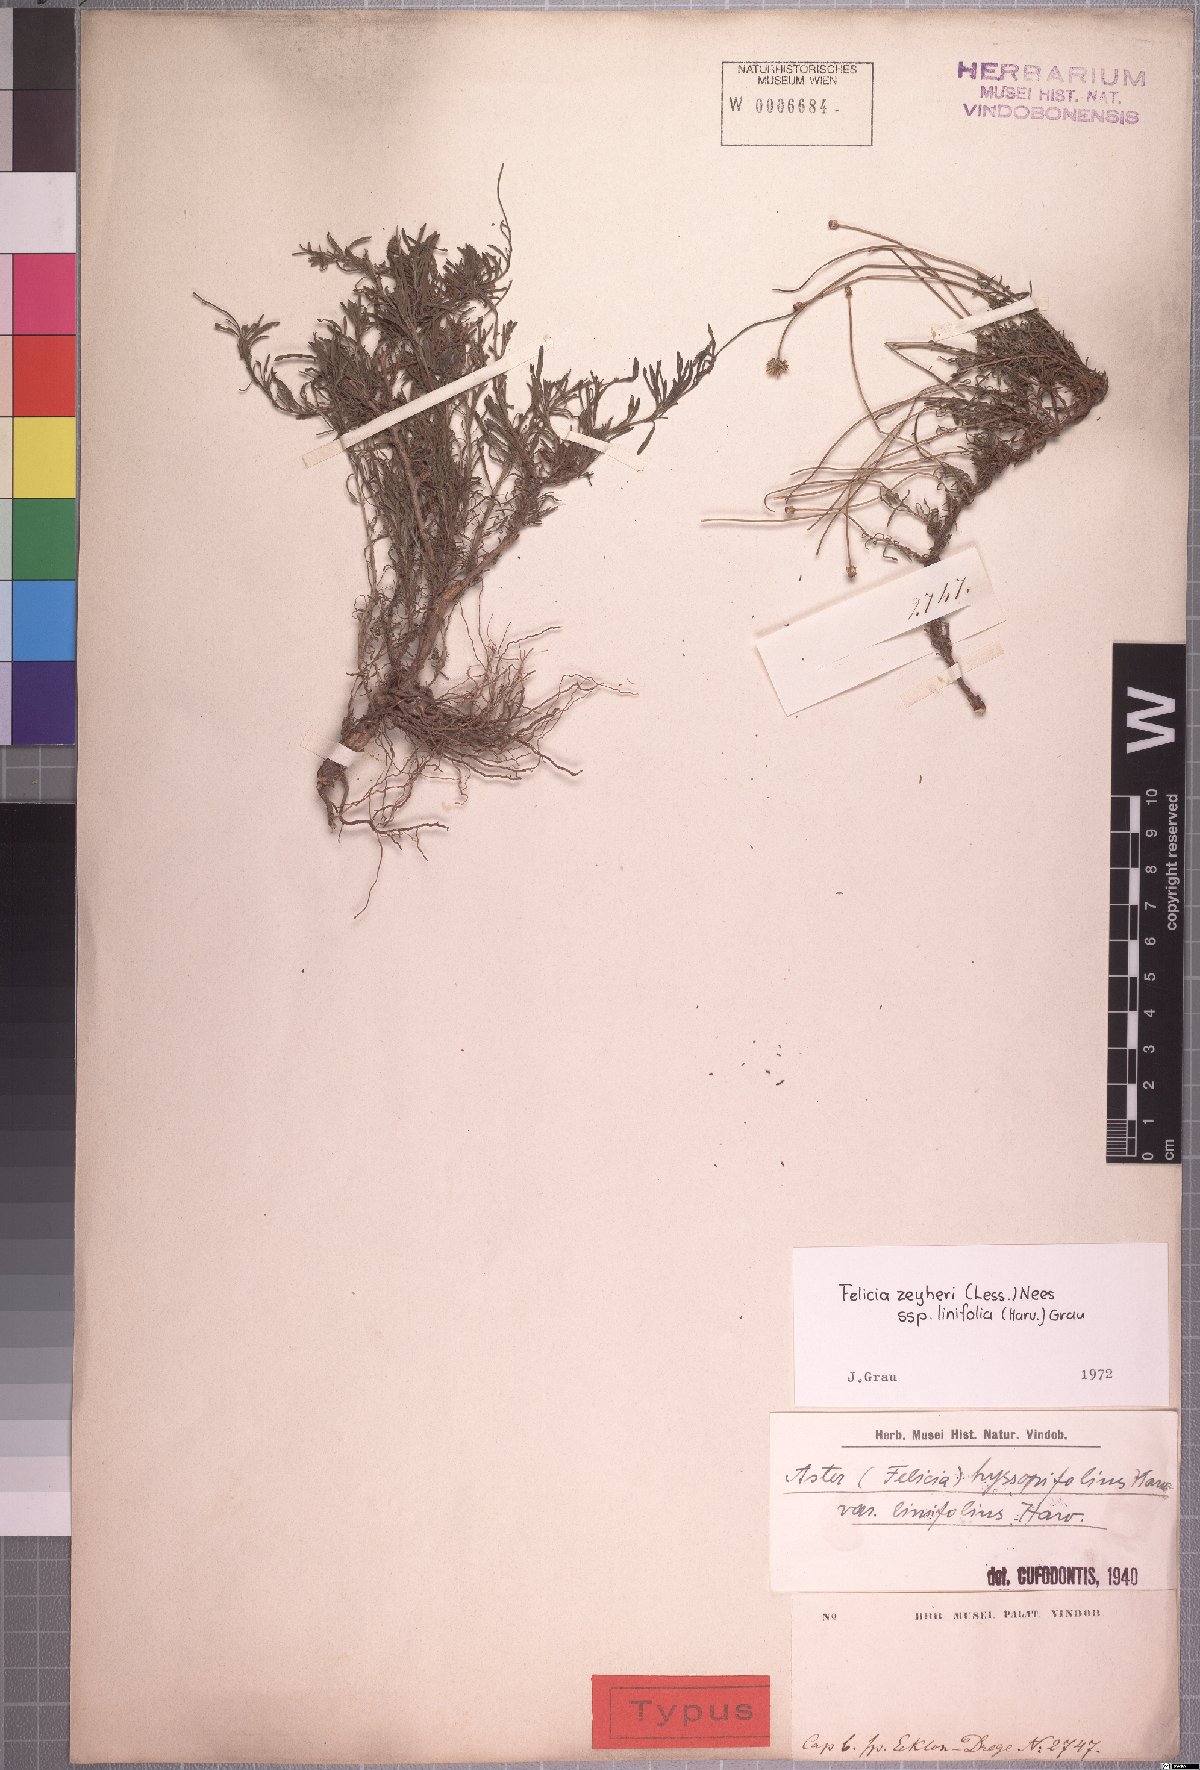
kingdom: Plantae
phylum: Tracheophyta
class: Magnoliopsida
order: Asterales
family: Asteraceae
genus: Felicia
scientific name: Felicia zeyheri
